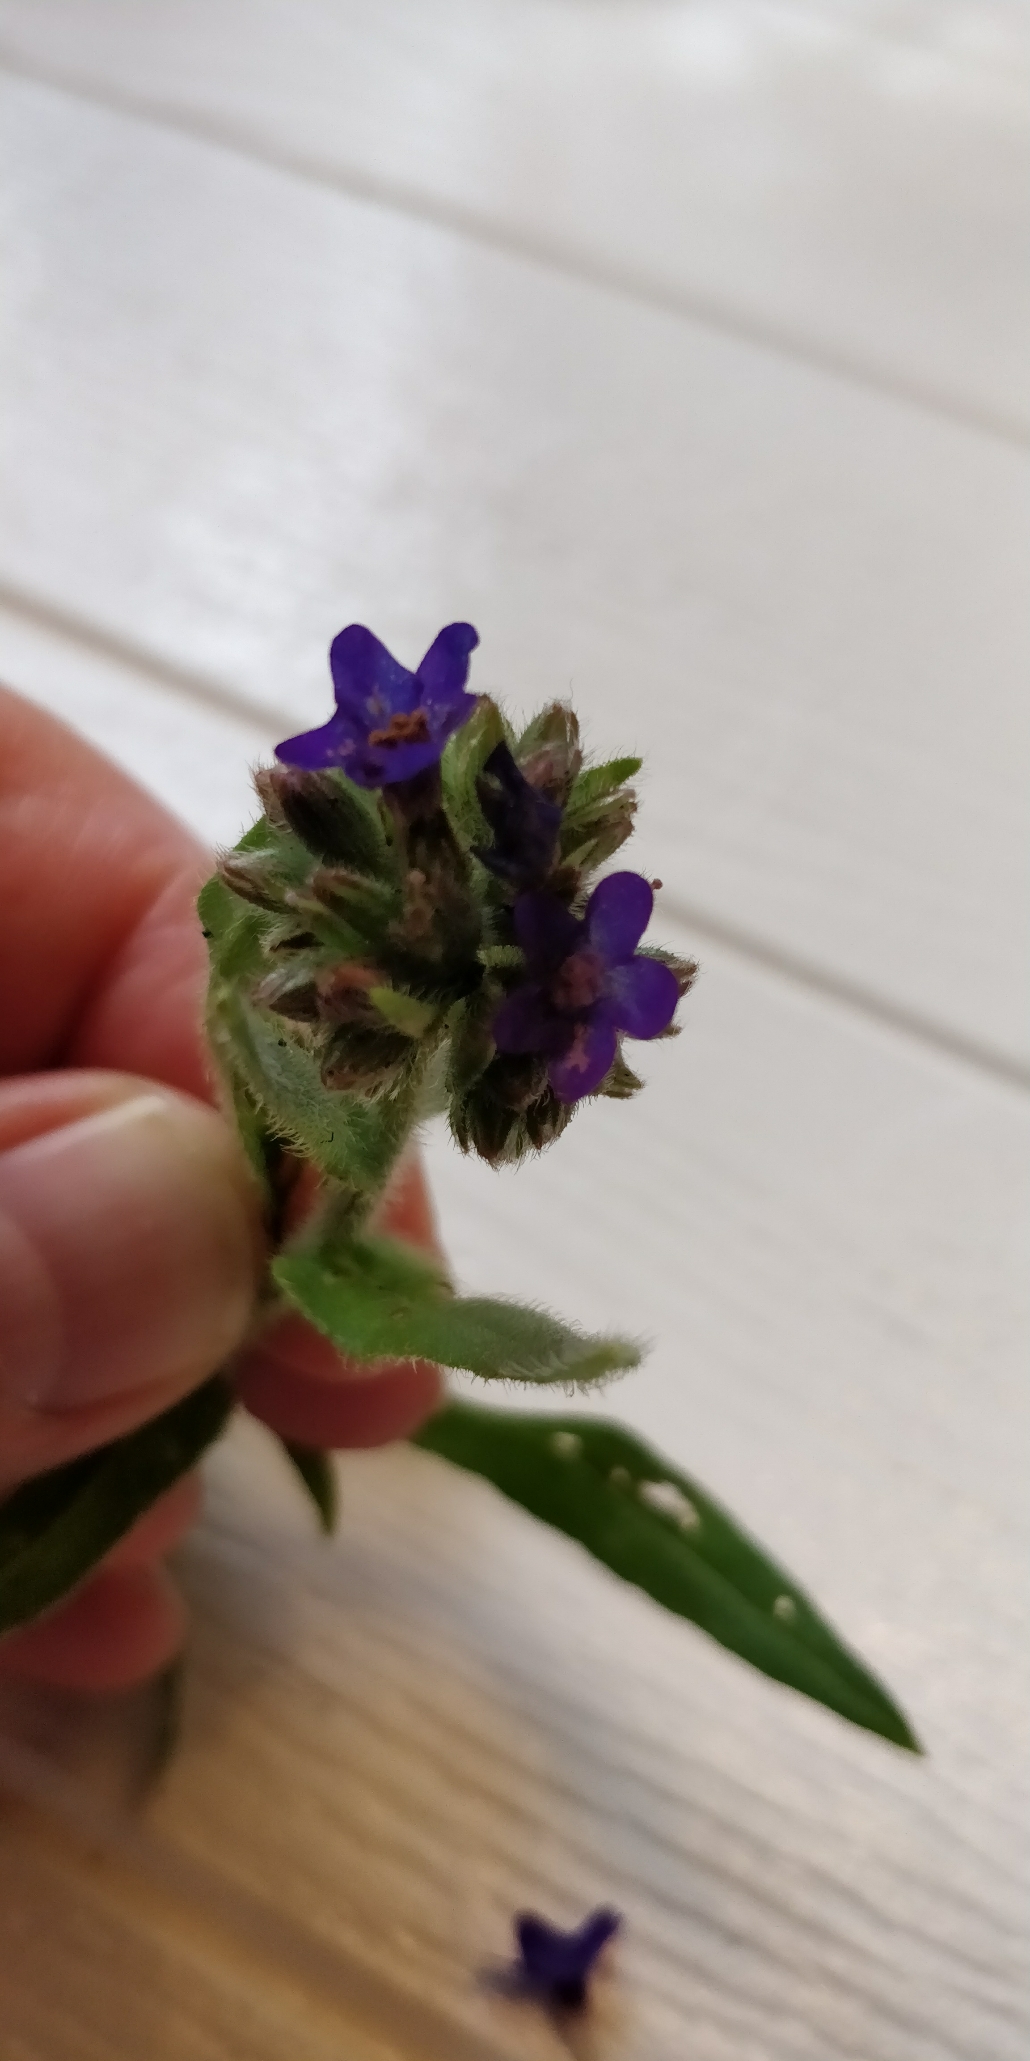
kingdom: Plantae
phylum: Tracheophyta
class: Magnoliopsida
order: Boraginales
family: Boraginaceae
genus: Anchusa
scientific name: Anchusa officinalis
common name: Læge-oksetunge
